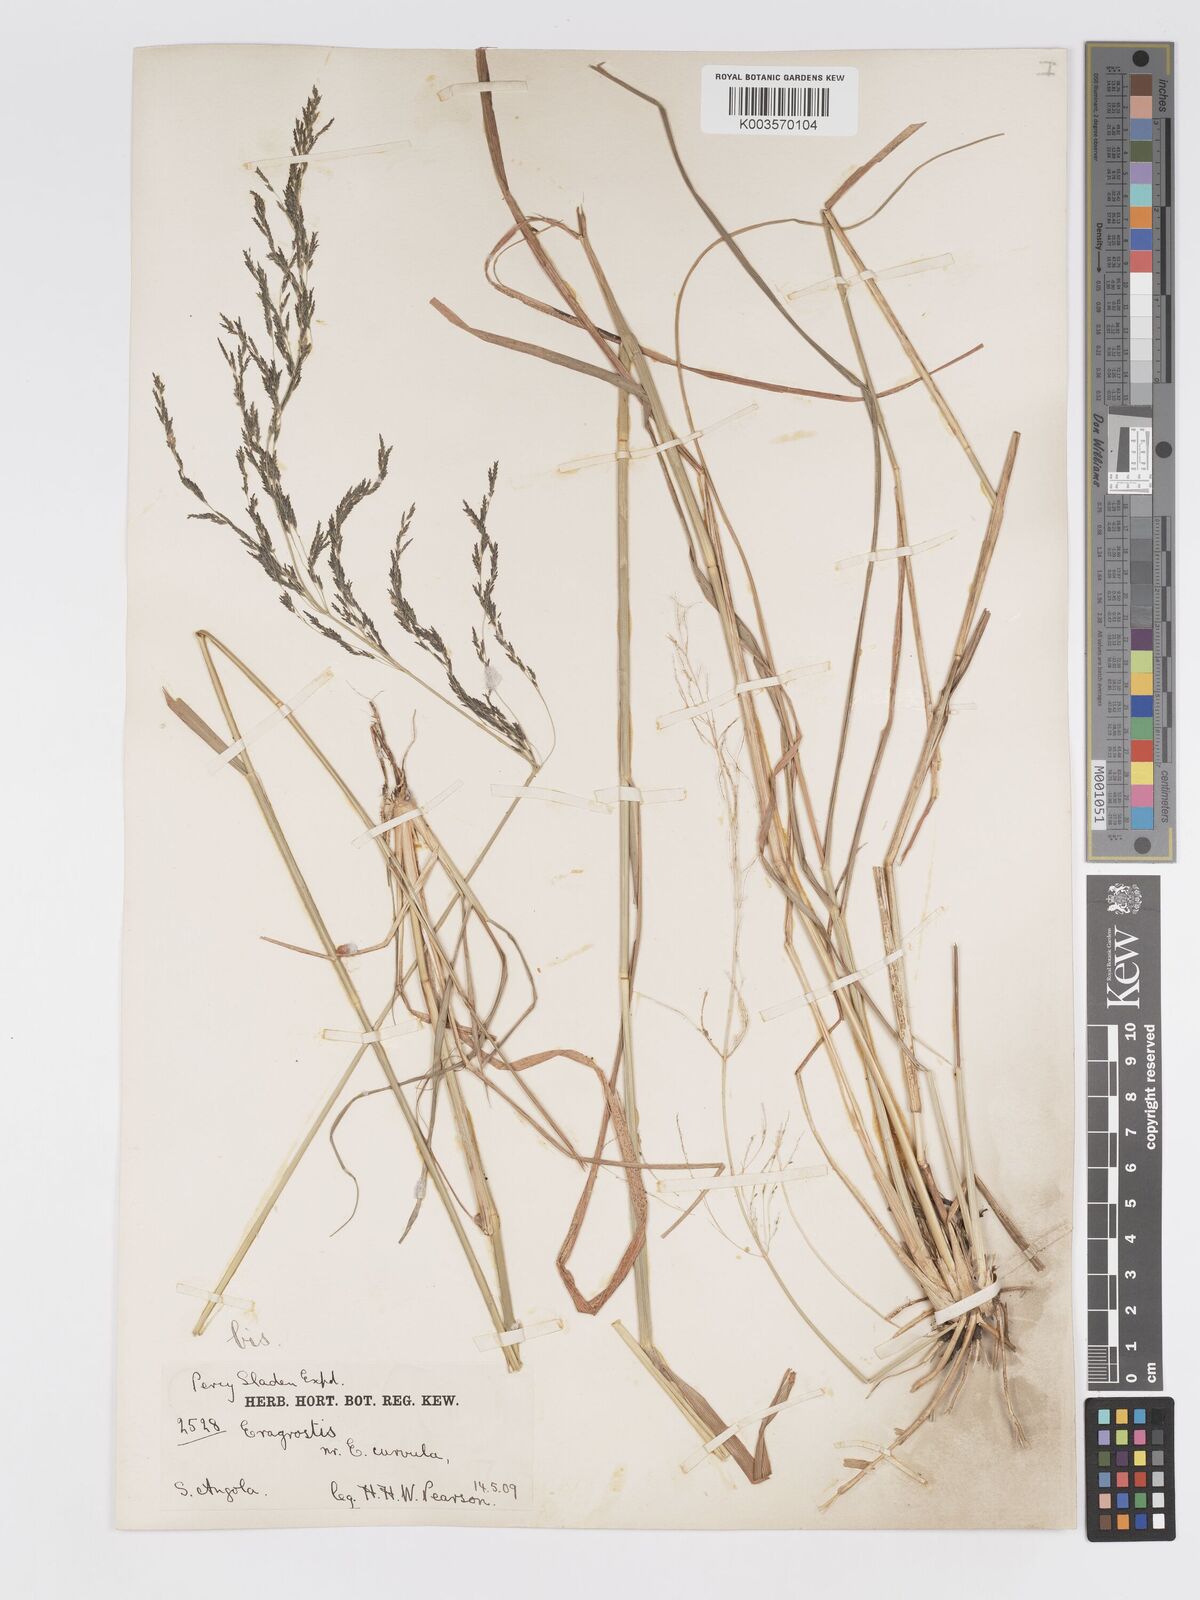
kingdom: Plantae
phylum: Tracheophyta
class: Liliopsida
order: Poales
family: Poaceae
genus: Eragrostis
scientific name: Eragrostis rotifer
